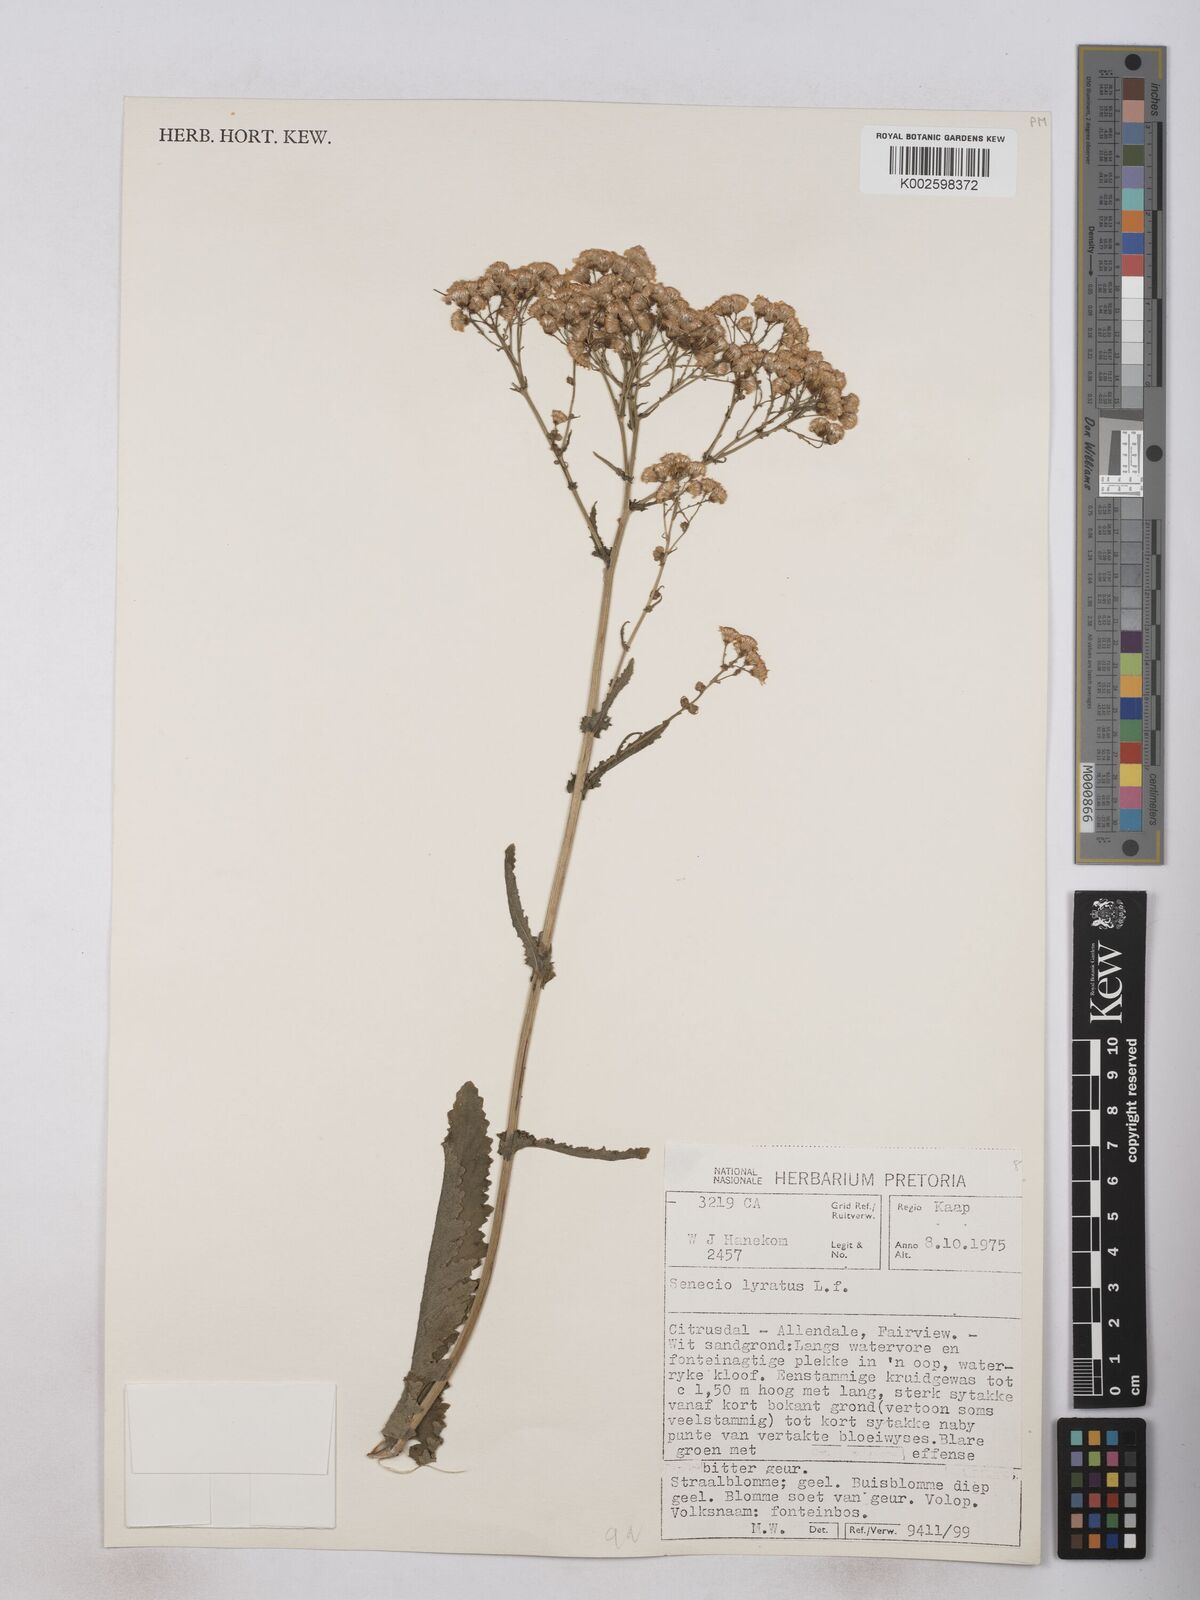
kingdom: Plantae
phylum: Tracheophyta
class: Magnoliopsida
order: Asterales
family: Asteraceae
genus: Senecio
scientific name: Senecio anapetes
